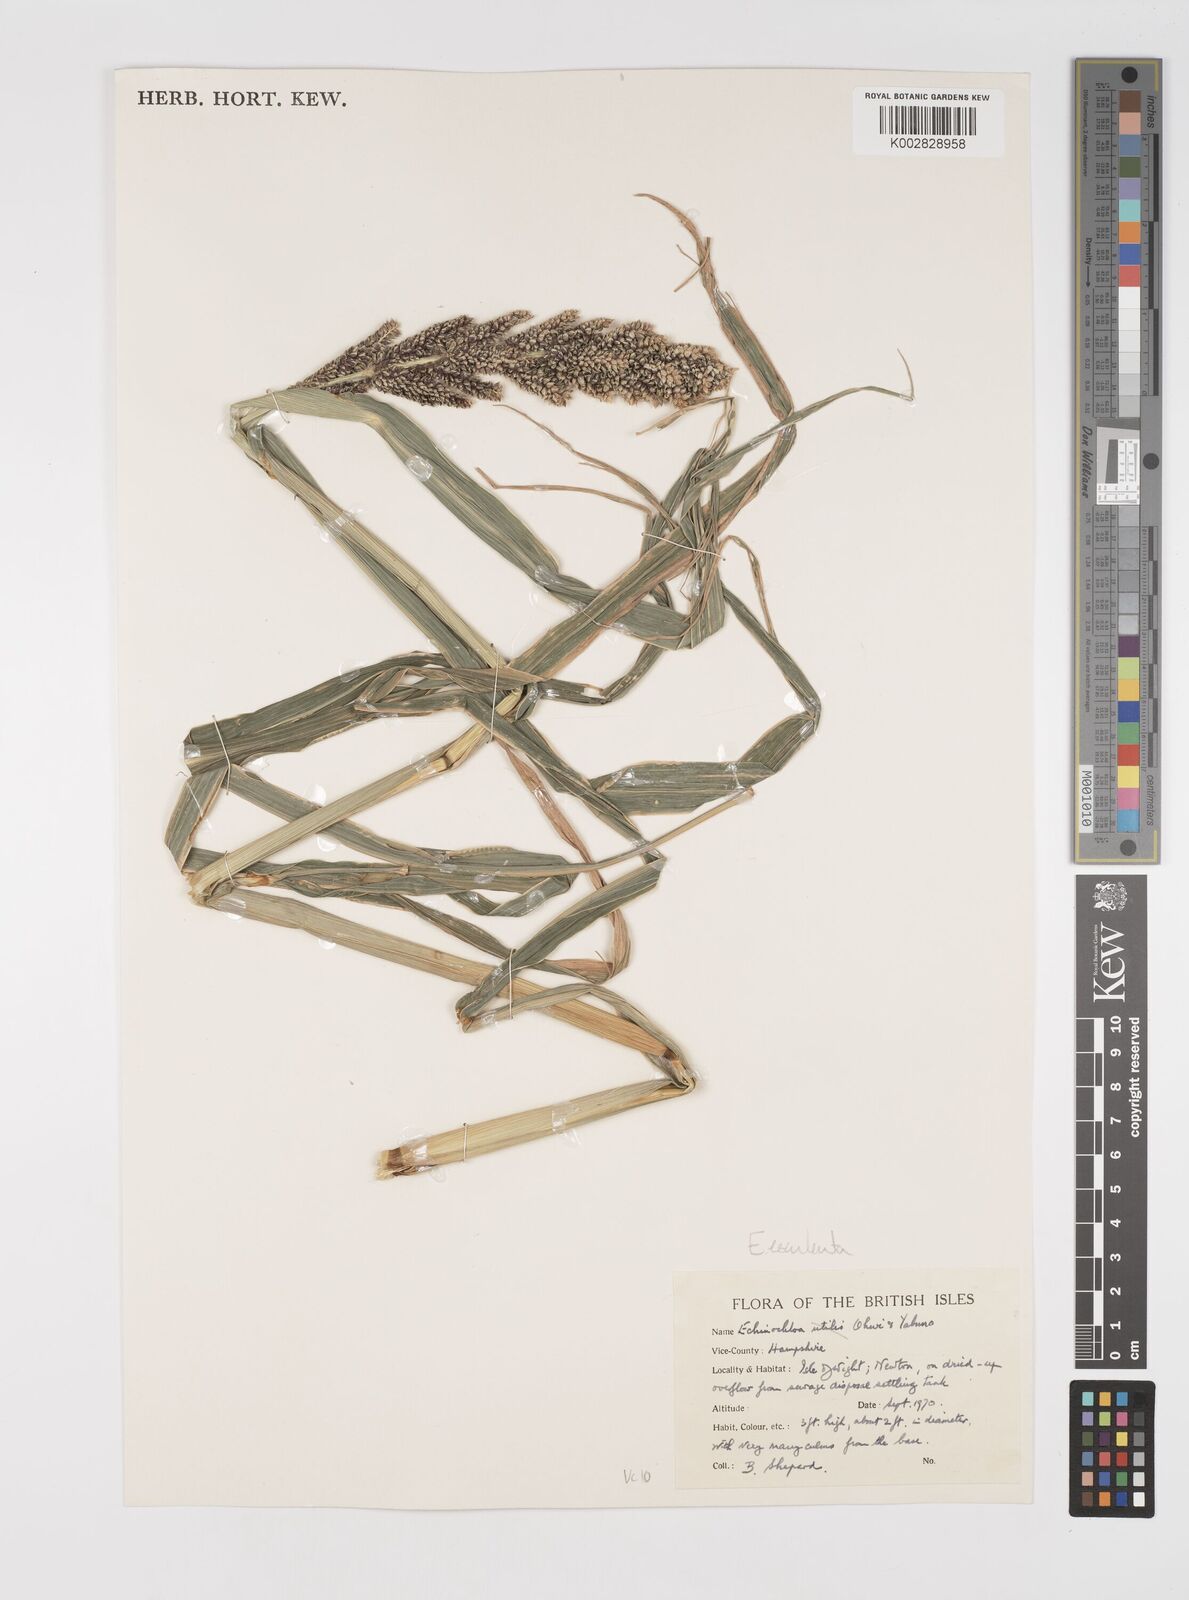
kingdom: Plantae
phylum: Tracheophyta
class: Liliopsida
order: Poales
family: Poaceae
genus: Echinochloa
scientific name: Echinochloa crus-galli
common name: Cockspur
